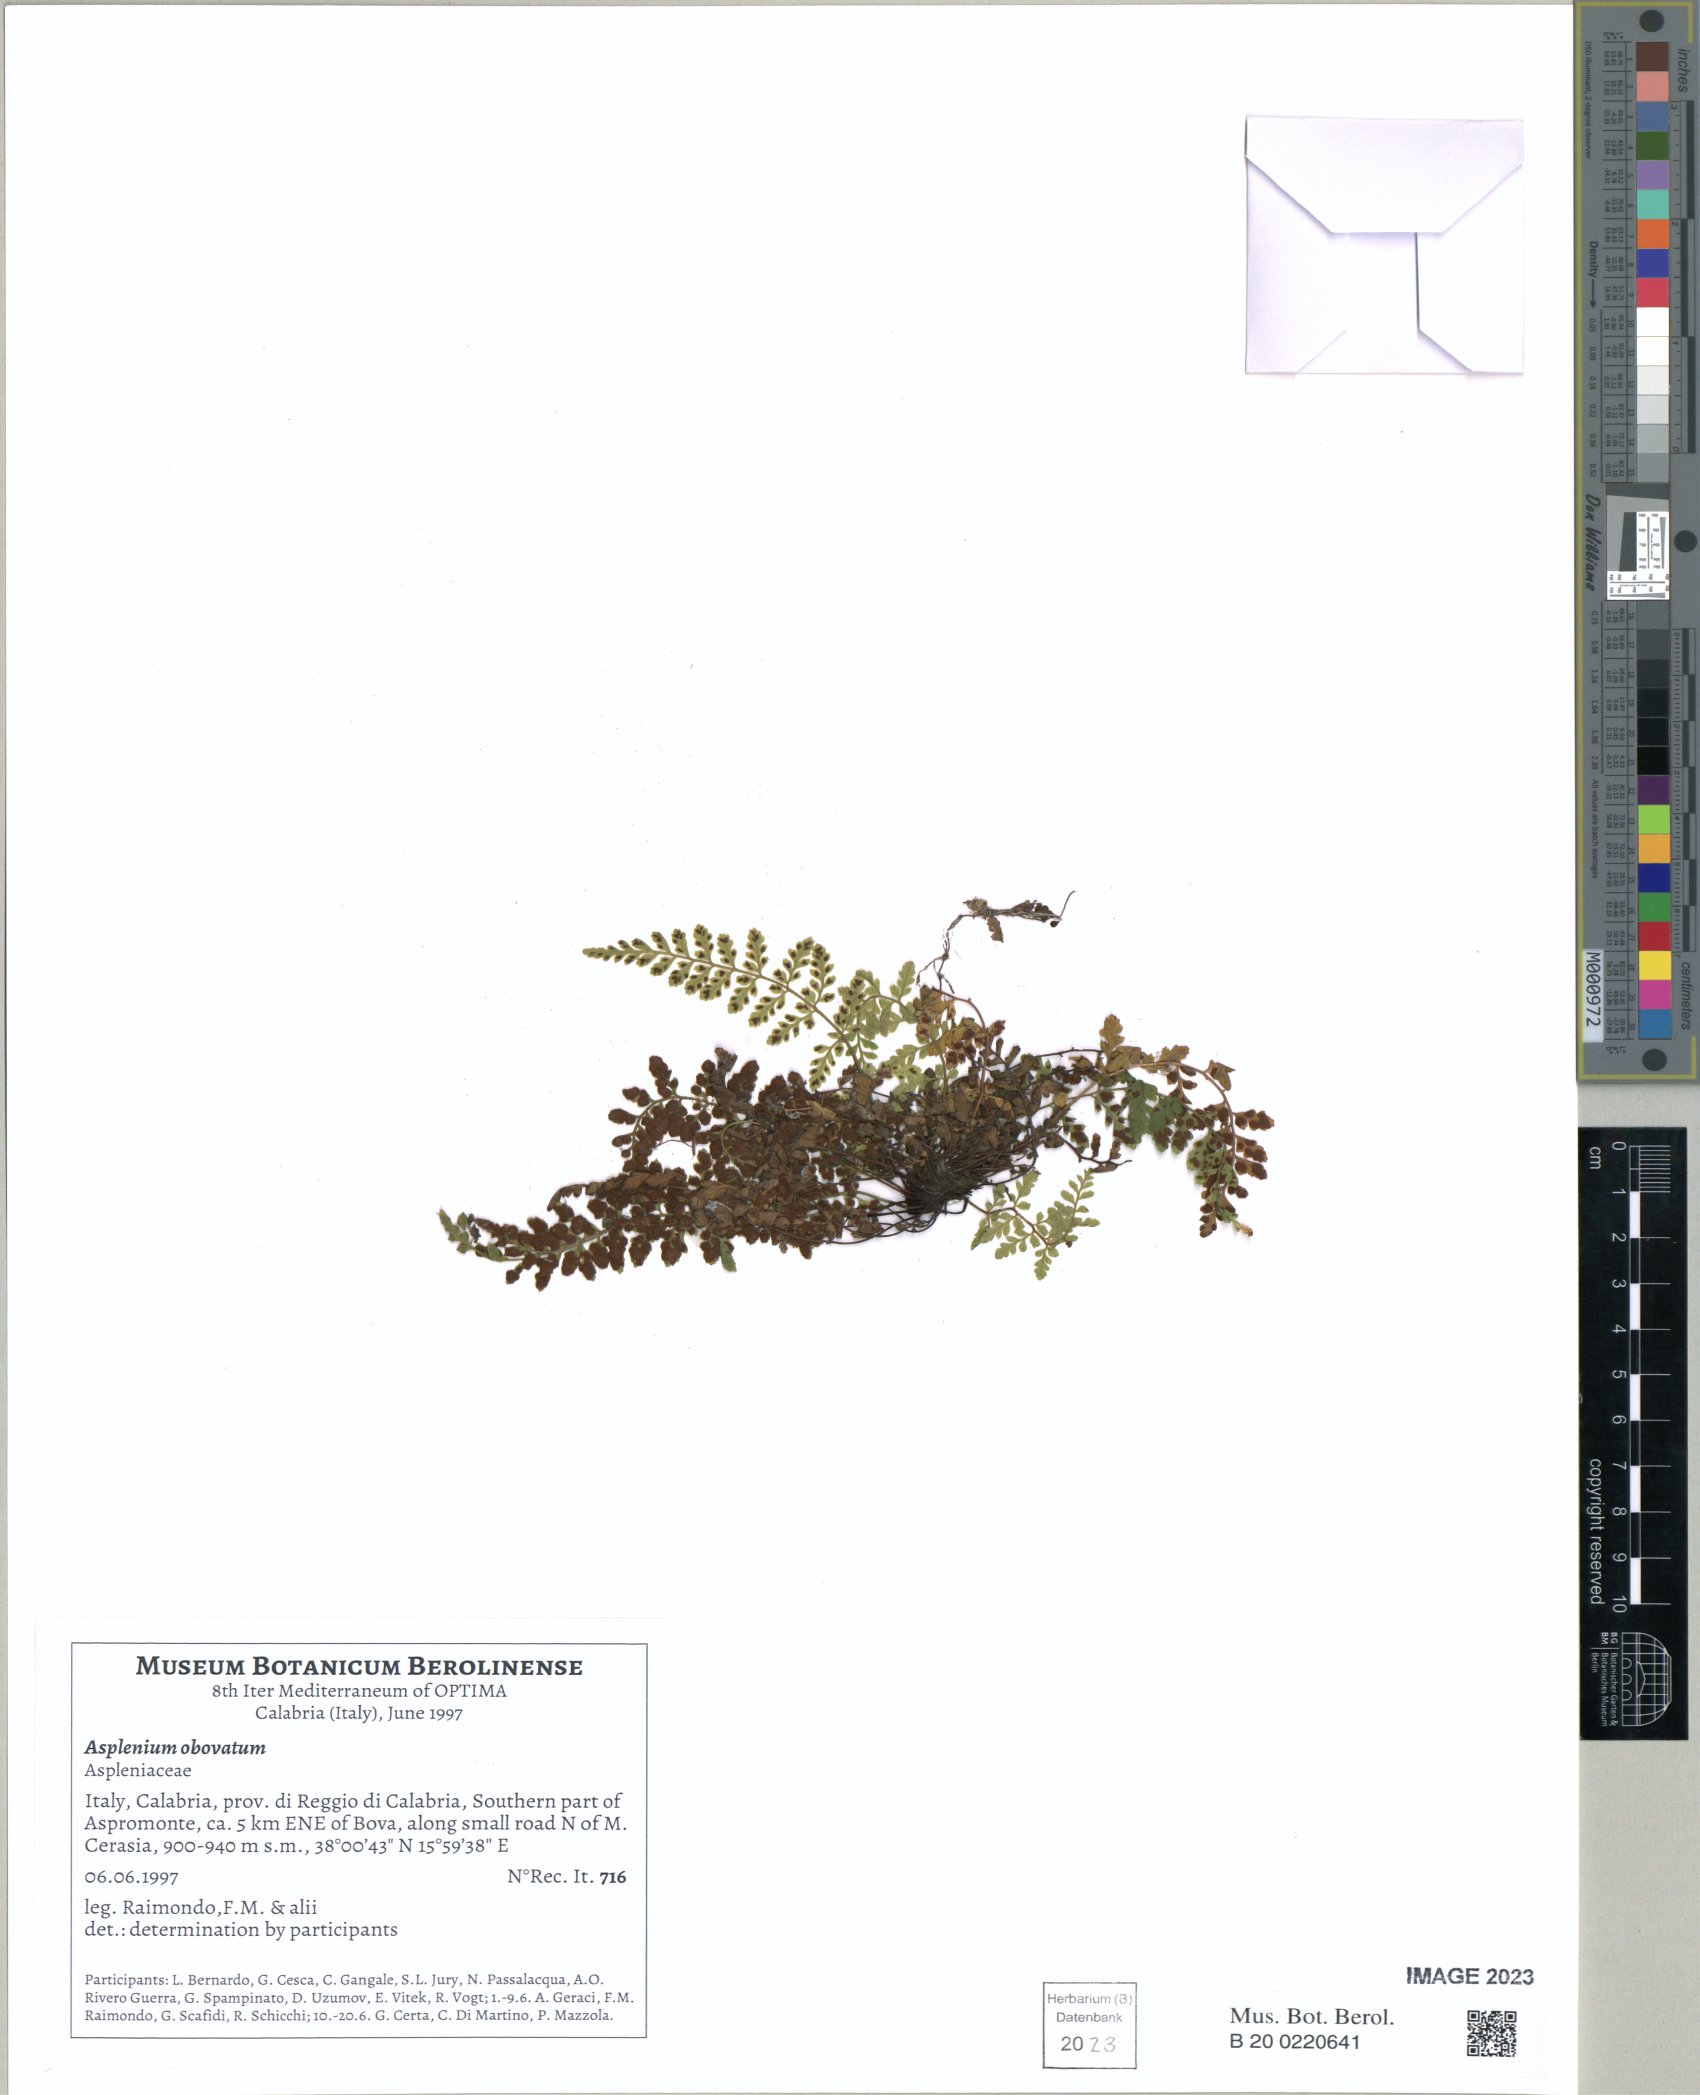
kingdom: Plantae
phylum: Tracheophyta
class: Polypodiopsida
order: Polypodiales
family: Aspleniaceae
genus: Asplenium
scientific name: Asplenium obovatum
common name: Lanceolate spleenwort
